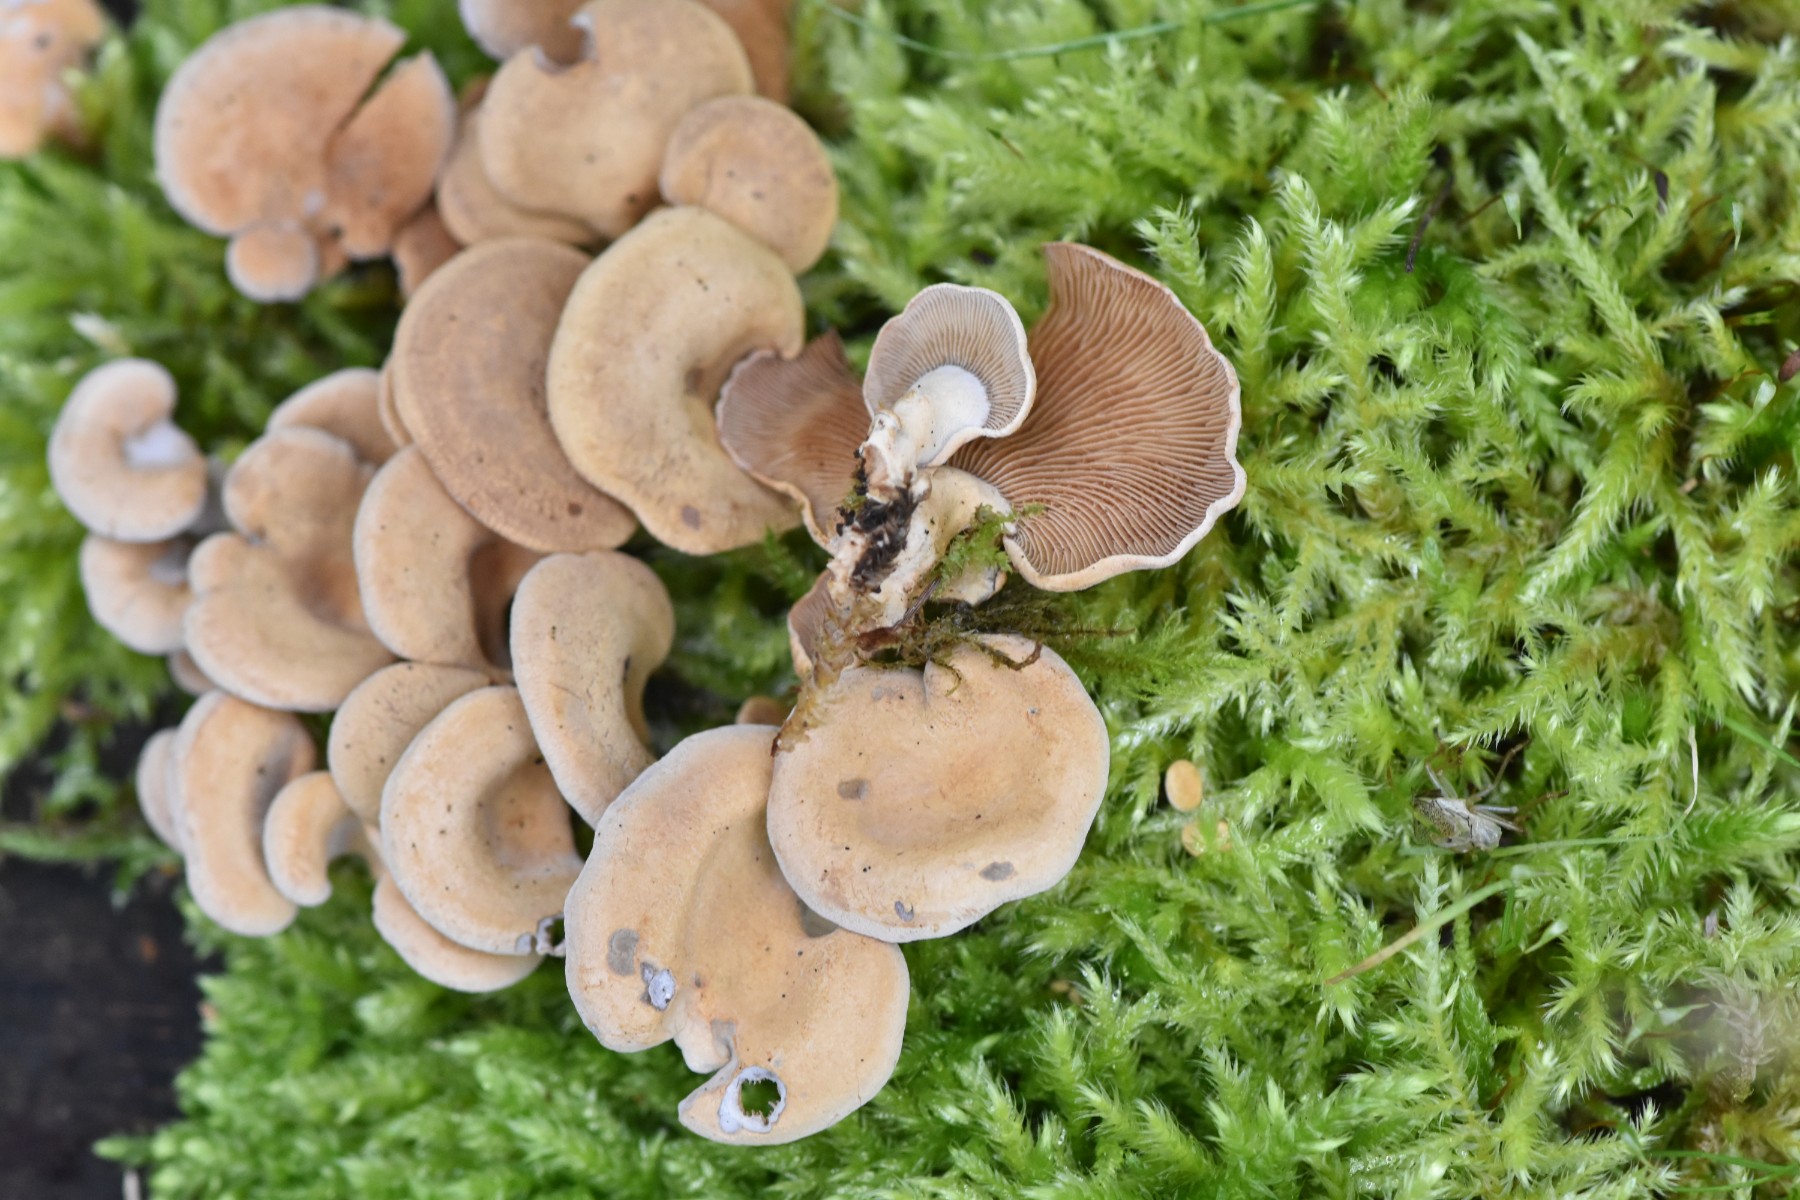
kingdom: Fungi
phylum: Basidiomycota
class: Agaricomycetes
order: Agaricales
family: Mycenaceae
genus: Panellus
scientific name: Panellus stipticus
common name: kliddet epaulethat
